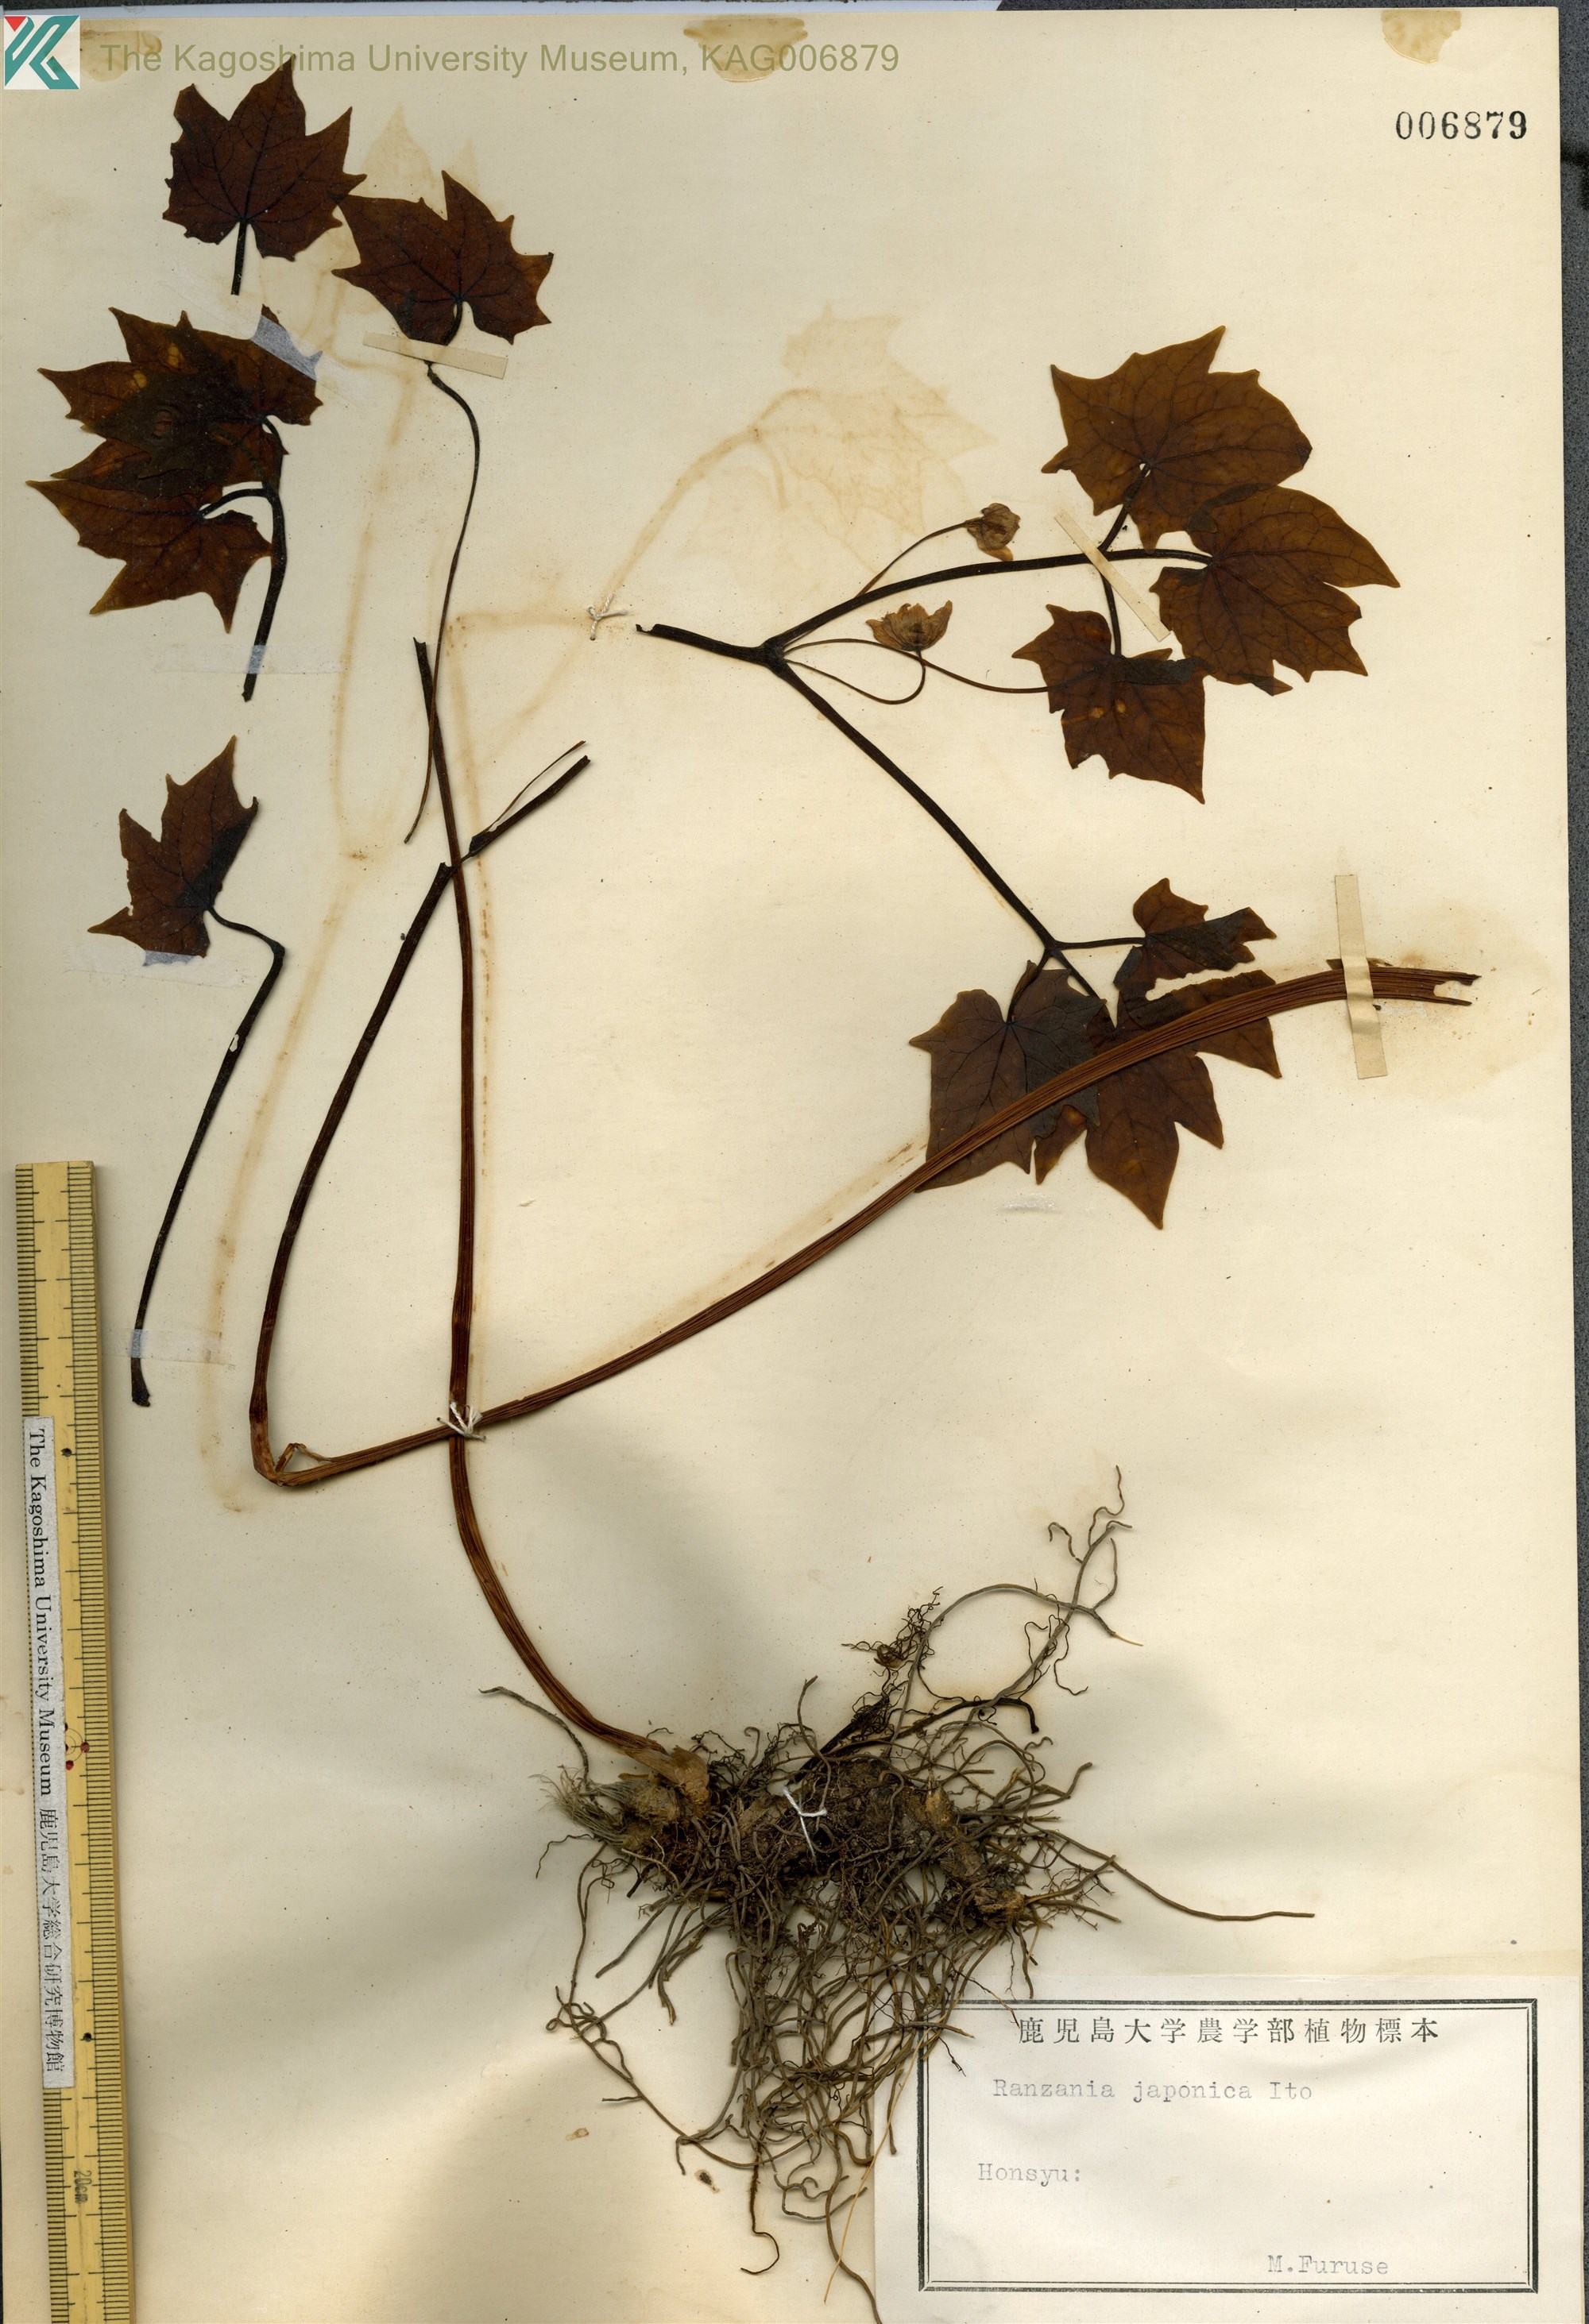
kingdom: Plantae
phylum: Tracheophyta
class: Magnoliopsida
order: Ranunculales
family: Berberidaceae
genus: Ranzania
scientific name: Ranzania japonica
